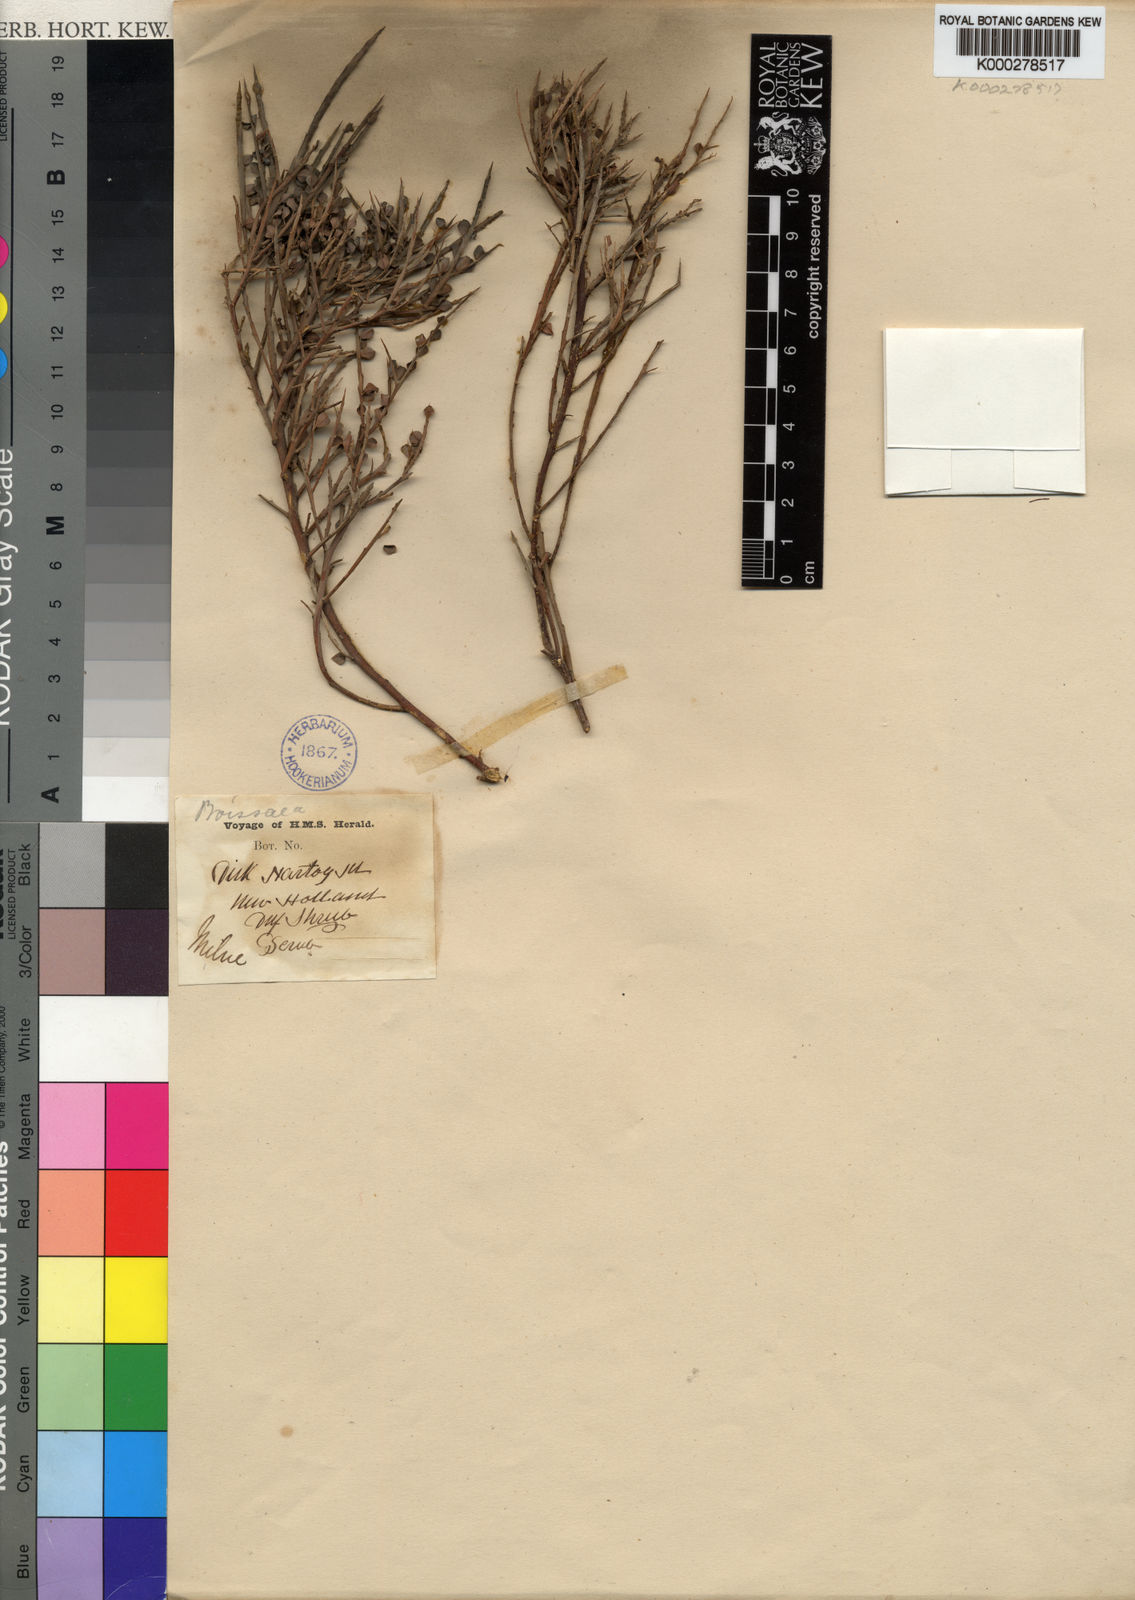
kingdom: Plantae
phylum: Tracheophyta
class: Magnoliopsida
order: Fabales
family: Fabaceae
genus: Bossiaea
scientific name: Bossiaea
